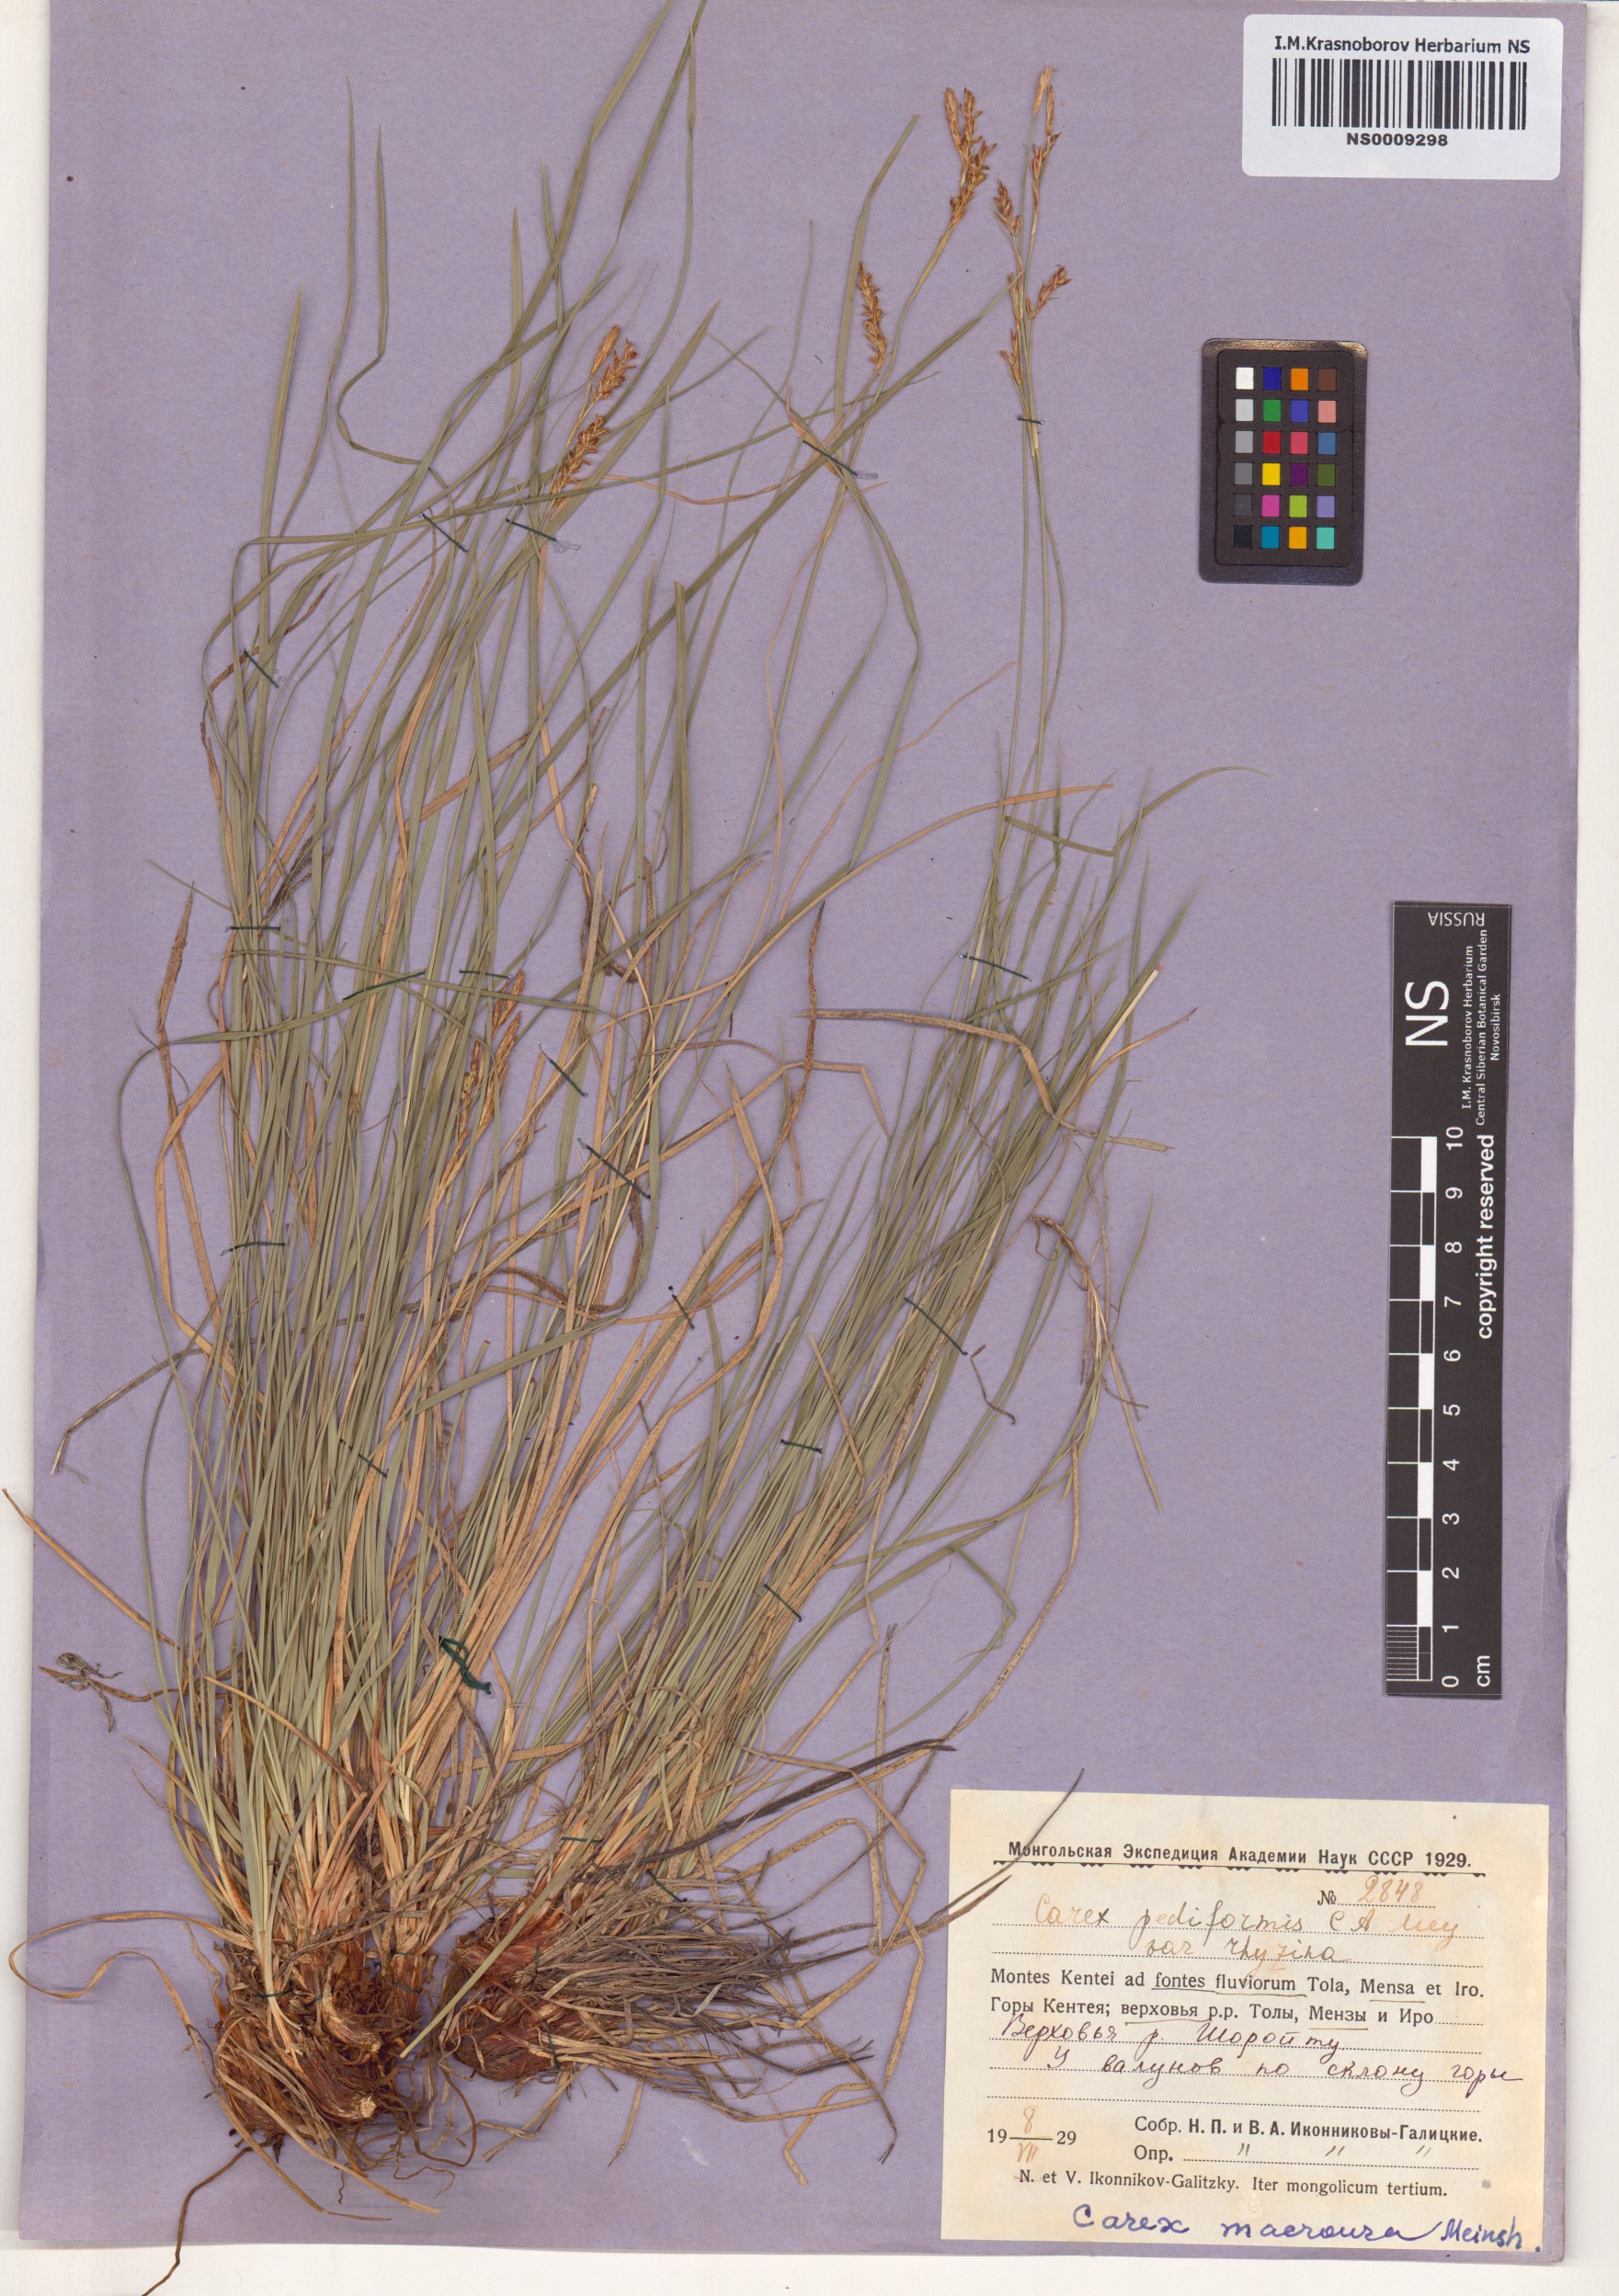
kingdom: Plantae
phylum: Tracheophyta
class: Liliopsida
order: Poales
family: Cyperaceae
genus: Carex
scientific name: Carex pediformis
